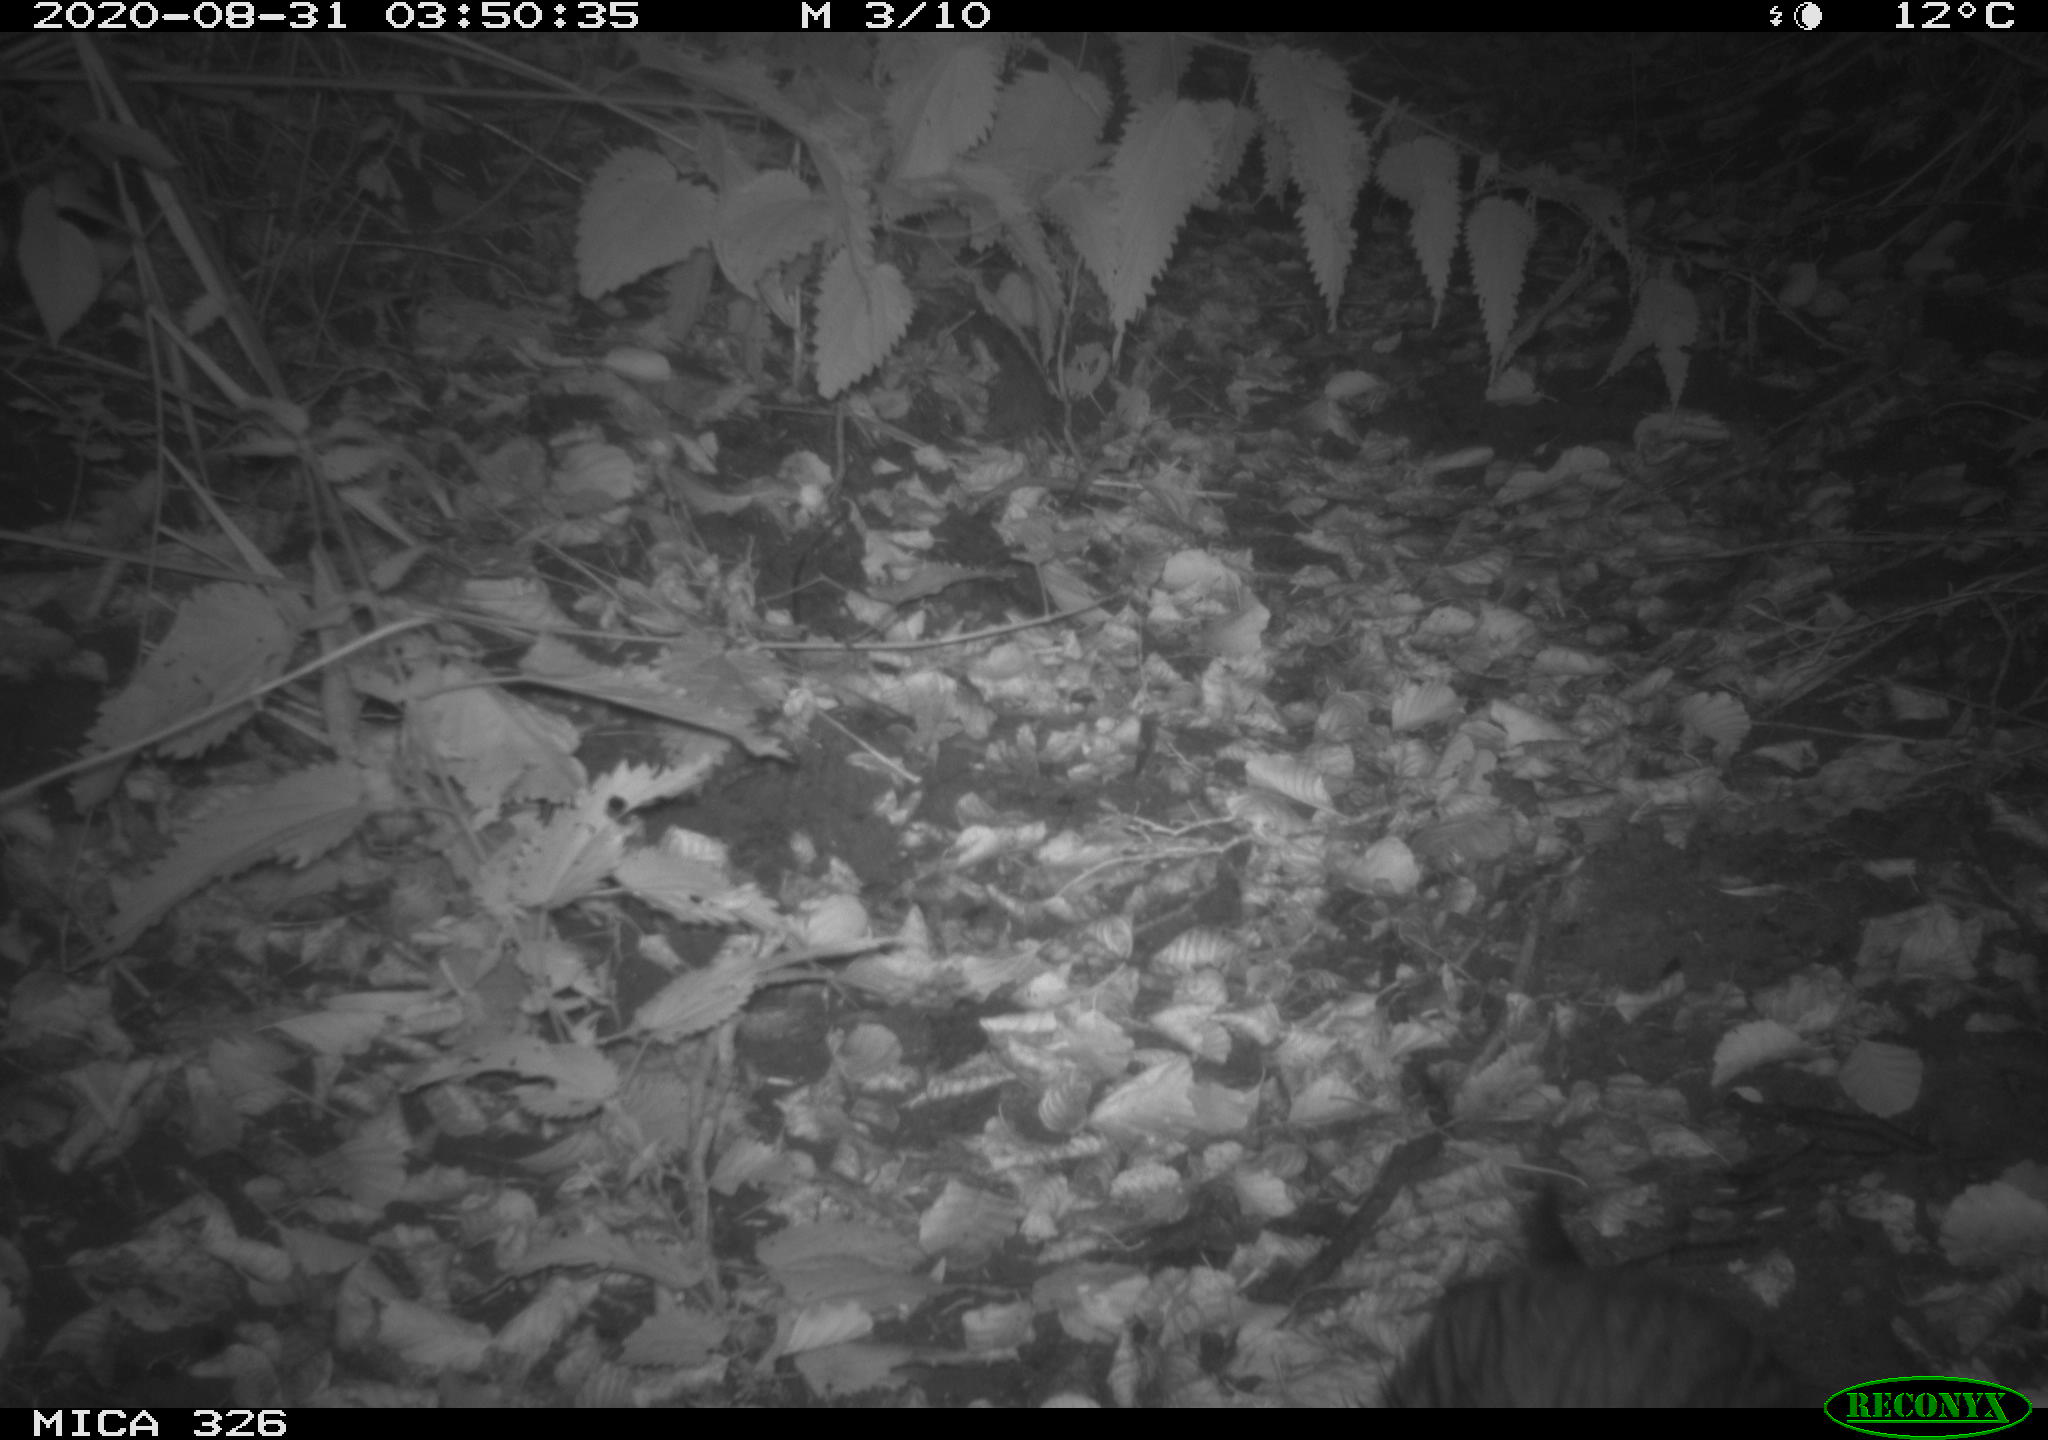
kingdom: Animalia
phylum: Chordata
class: Mammalia
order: Rodentia
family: Myocastoridae
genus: Myocastor
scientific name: Myocastor coypus
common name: Coypu
